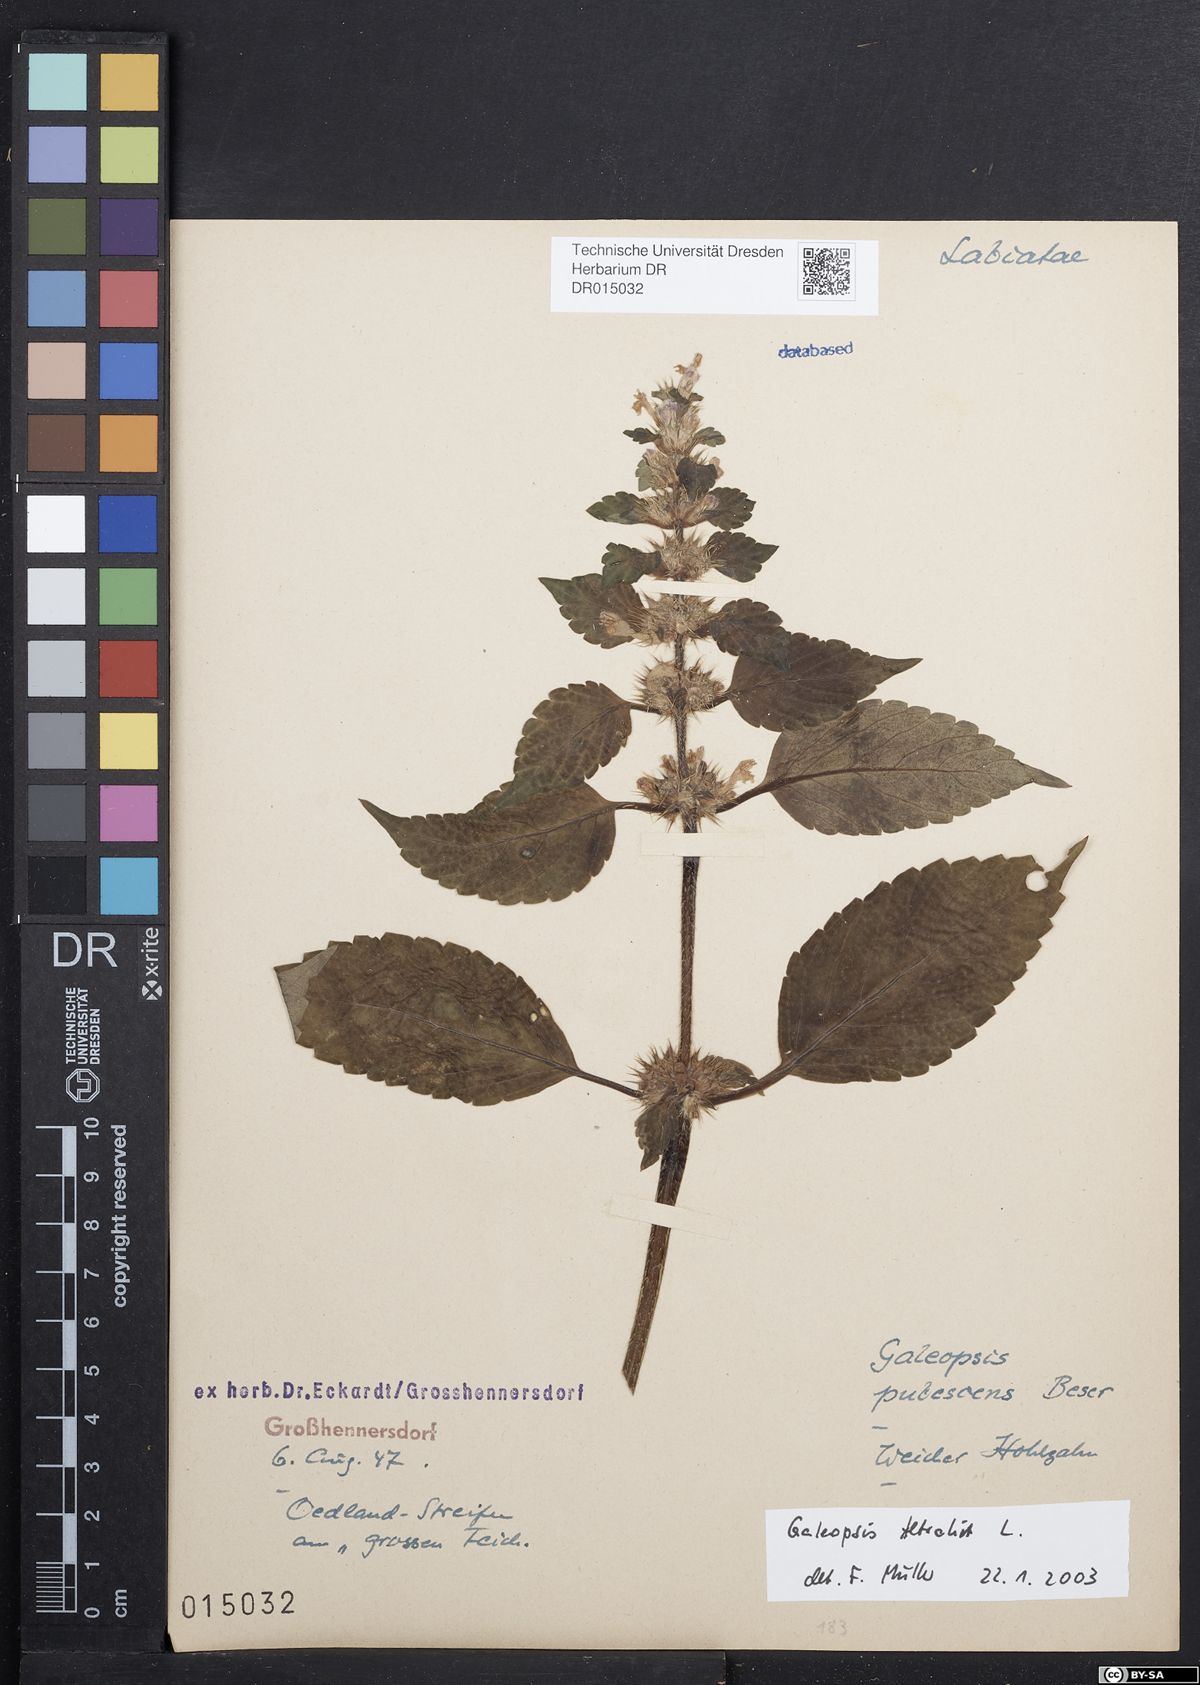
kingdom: Plantae
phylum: Tracheophyta
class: Magnoliopsida
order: Lamiales
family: Lamiaceae
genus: Galeopsis
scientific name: Galeopsis tetrahit
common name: Common hemp-nettle
